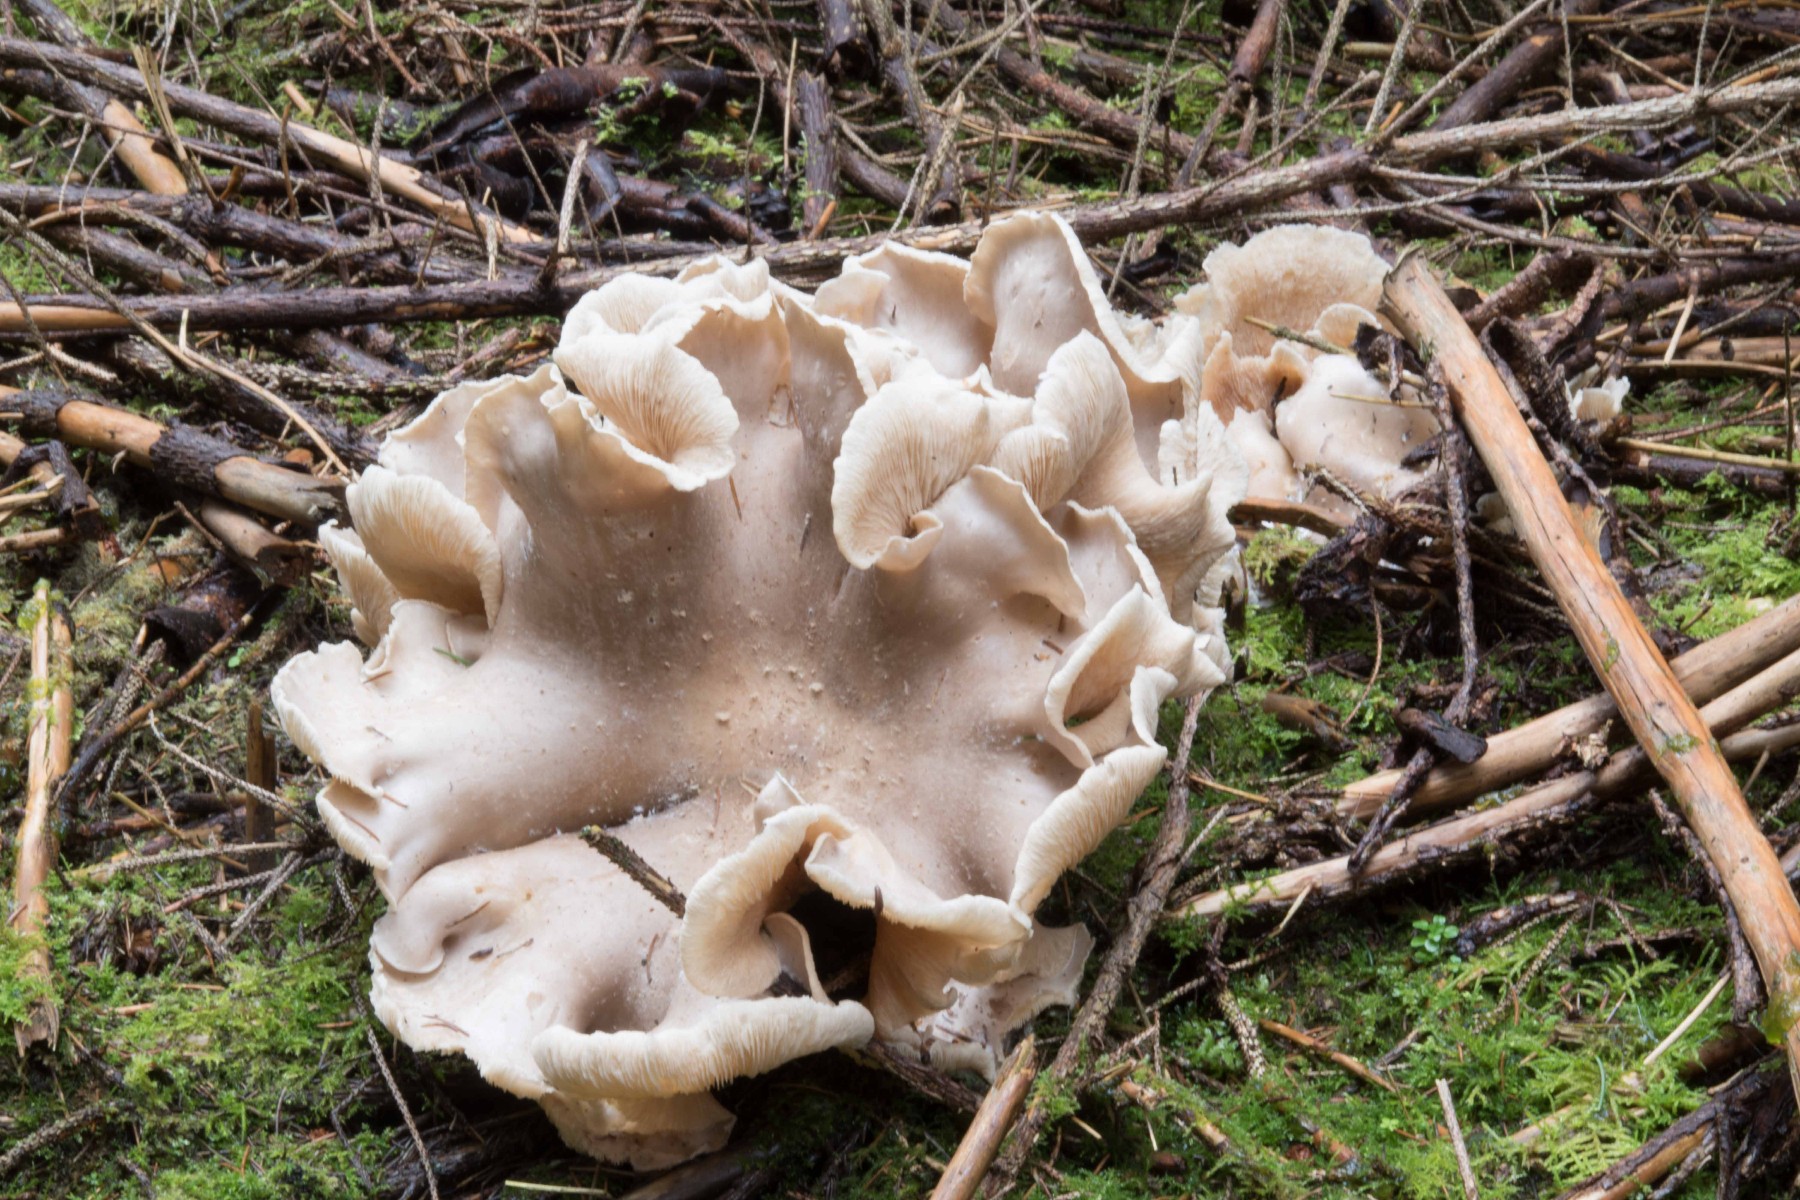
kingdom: Fungi
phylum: Basidiomycota
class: Agaricomycetes
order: Agaricales
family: Tricholomataceae
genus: Clitocybe
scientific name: Clitocybe nebularis
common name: tåge-tragthat
